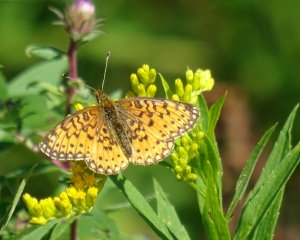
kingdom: Animalia
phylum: Arthropoda
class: Insecta
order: Lepidoptera
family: Nymphalidae
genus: Boloria
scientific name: Boloria selene
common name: Silver-bordered Fritillary
